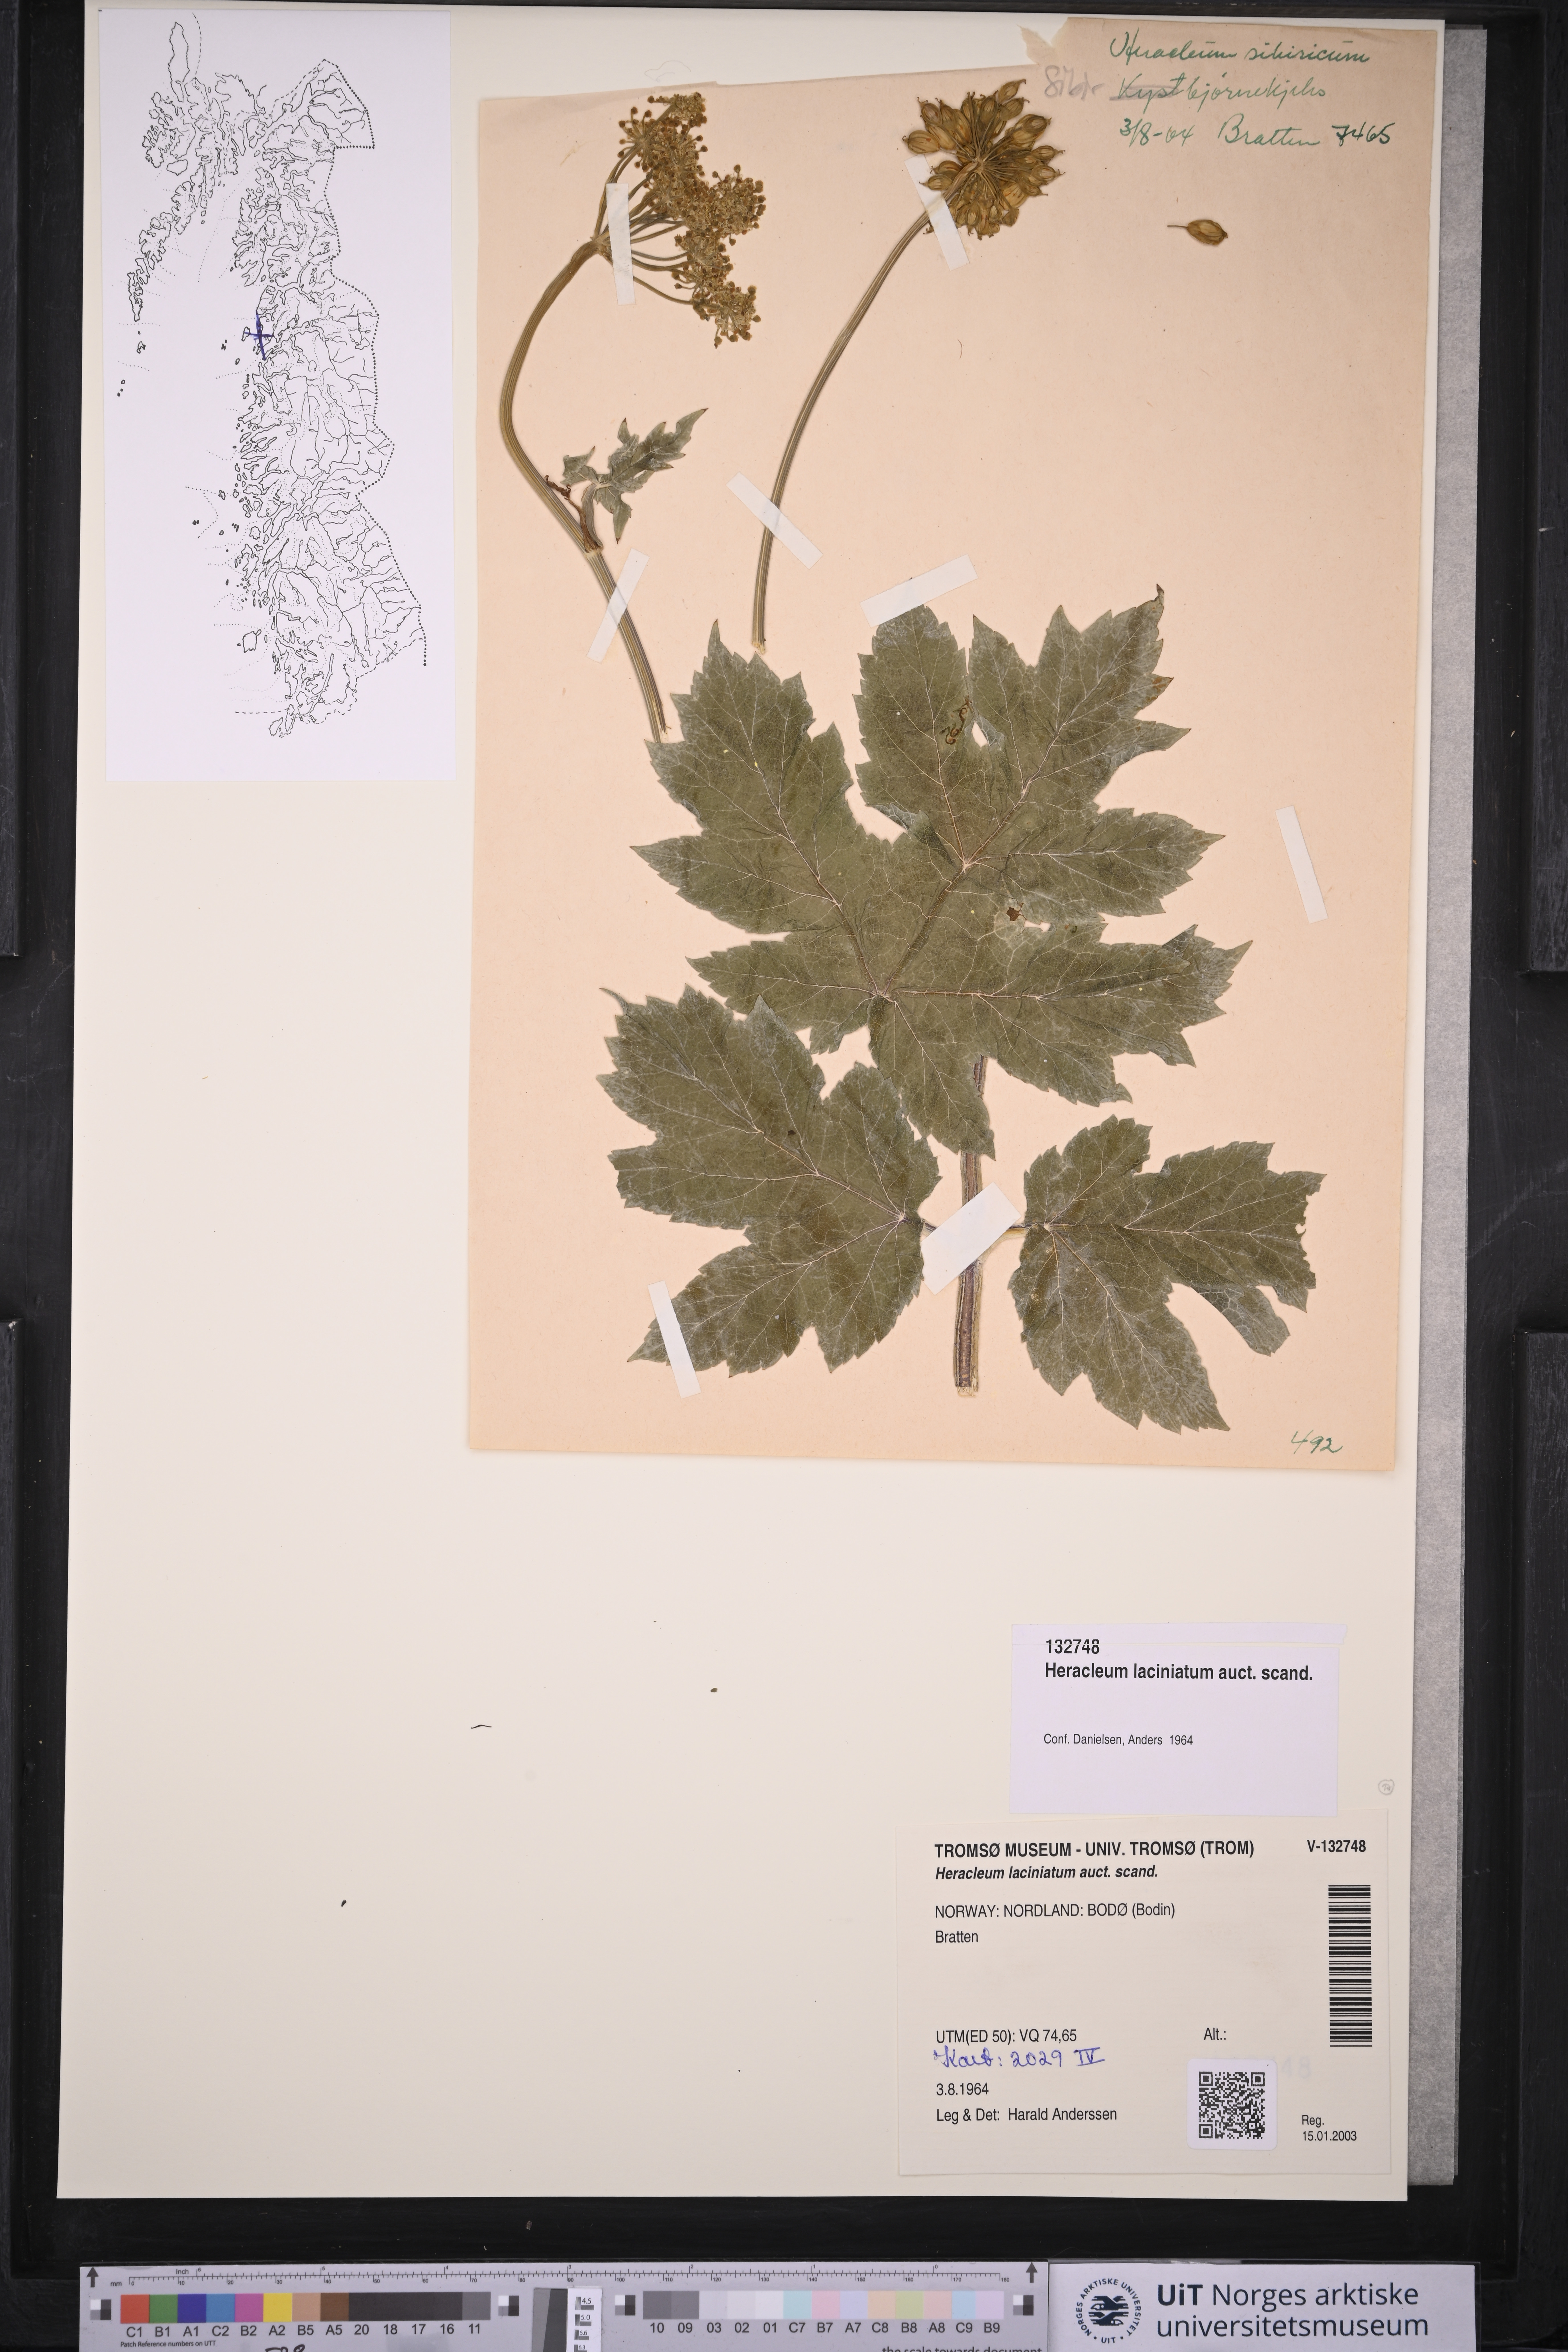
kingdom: Plantae
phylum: Tracheophyta
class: Magnoliopsida
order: Apiales
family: Apiaceae
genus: Heracleum
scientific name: Heracleum persicum
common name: Persian hogweed
